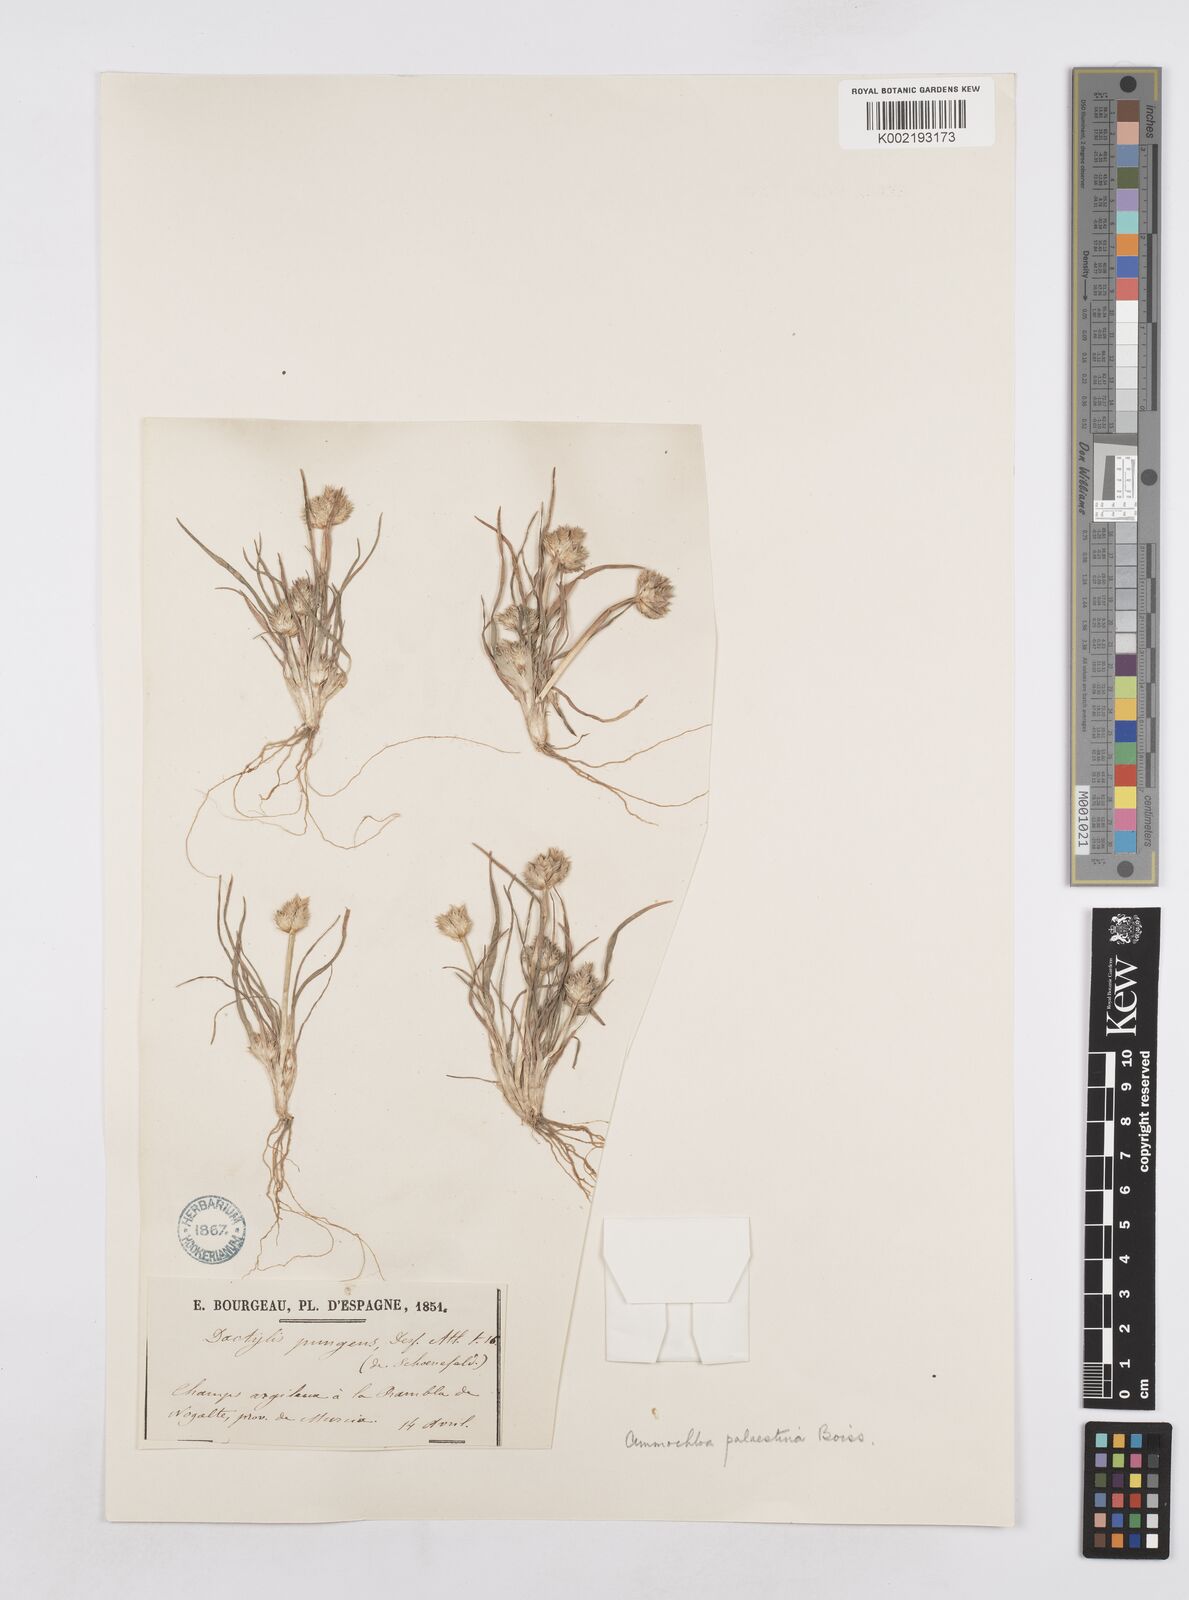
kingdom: Plantae
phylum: Tracheophyta
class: Liliopsida
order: Poales
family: Poaceae
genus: Ammochloa
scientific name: Ammochloa palaestina
